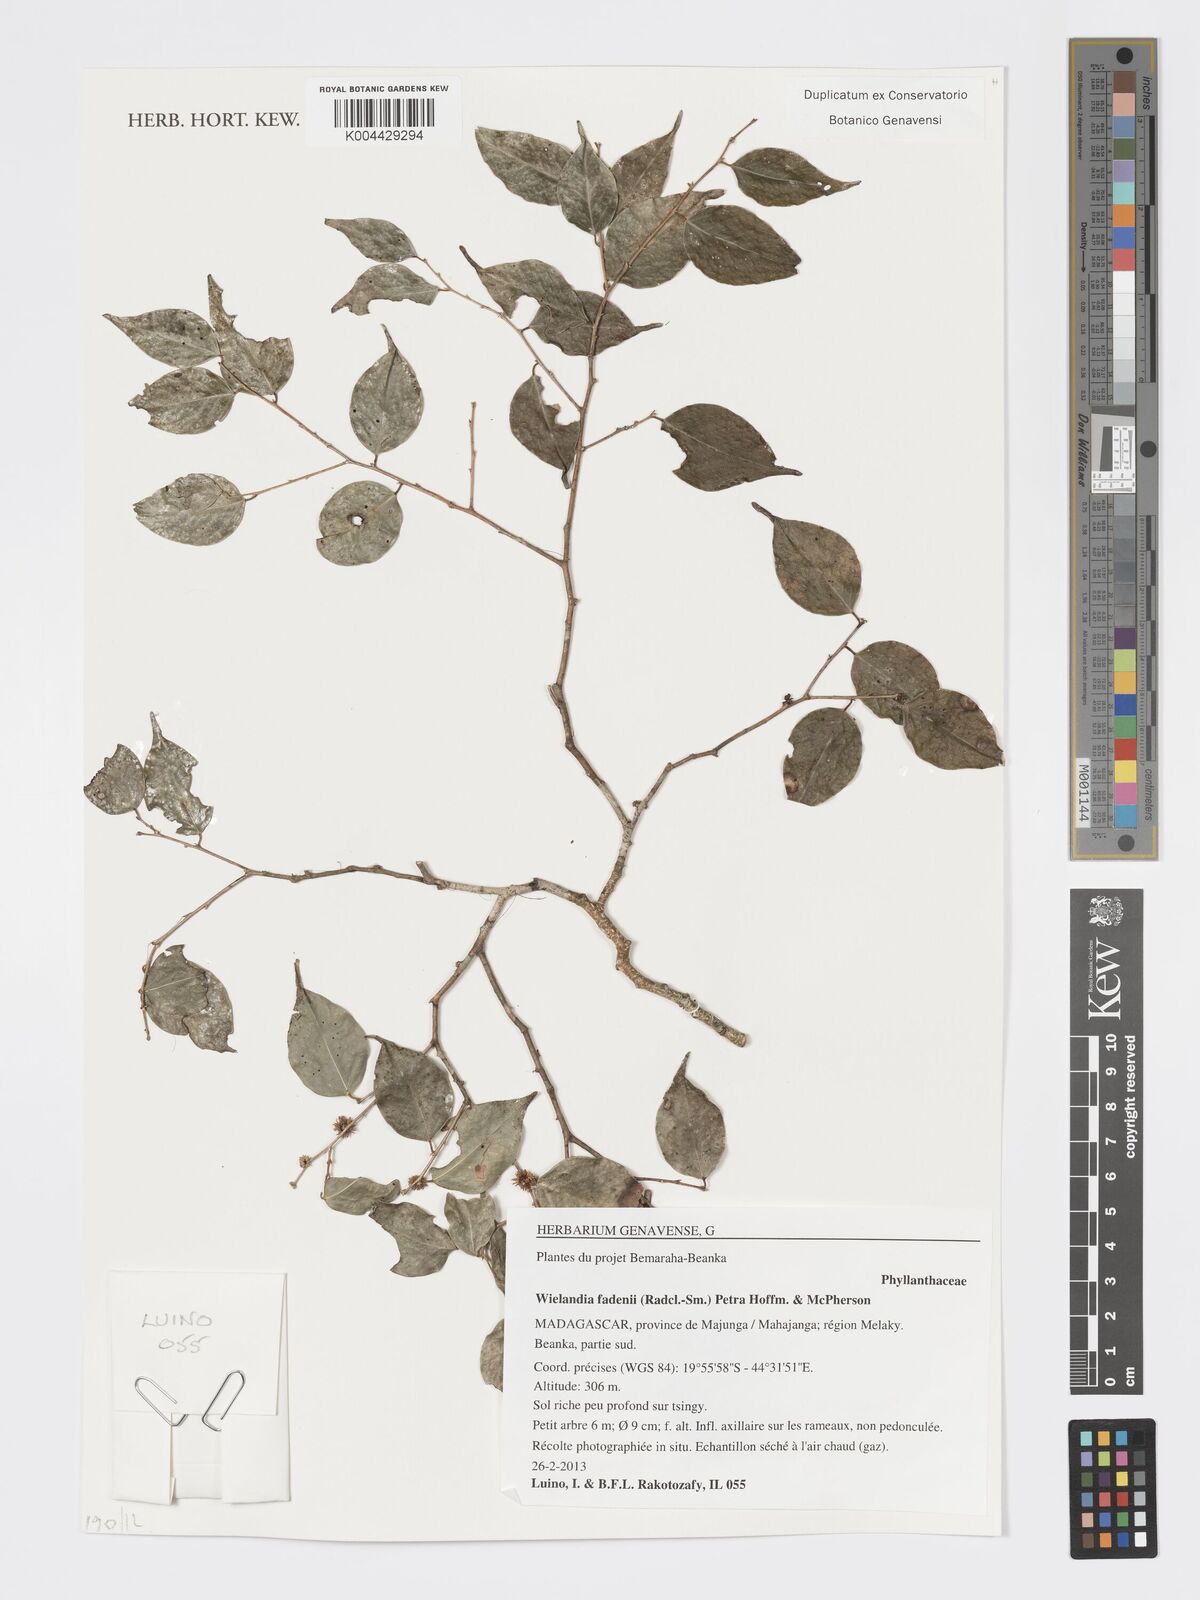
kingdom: Plantae
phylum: Tracheophyta
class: Magnoliopsida
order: Malpighiales
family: Phyllanthaceae
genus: Wielandia
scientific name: Wielandia fadenii
